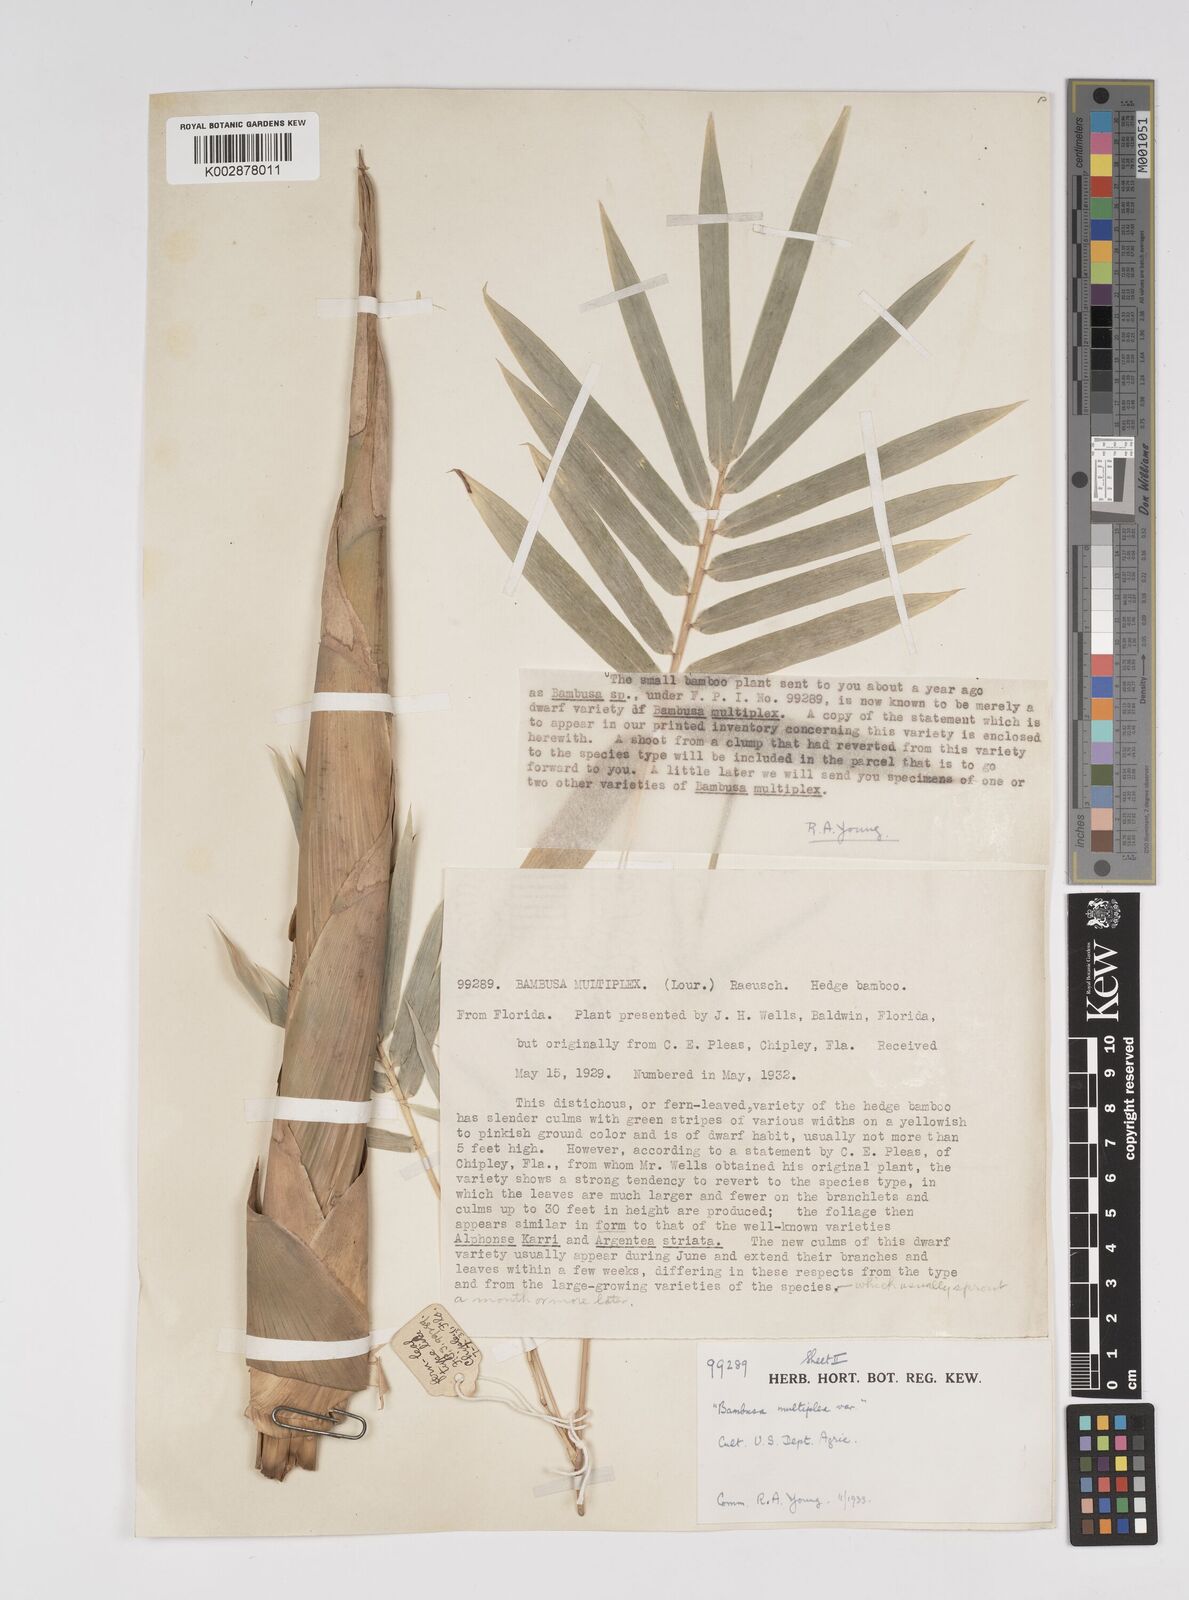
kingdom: Plantae
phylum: Tracheophyta
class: Liliopsida
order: Poales
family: Poaceae
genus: Bambusa
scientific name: Bambusa
